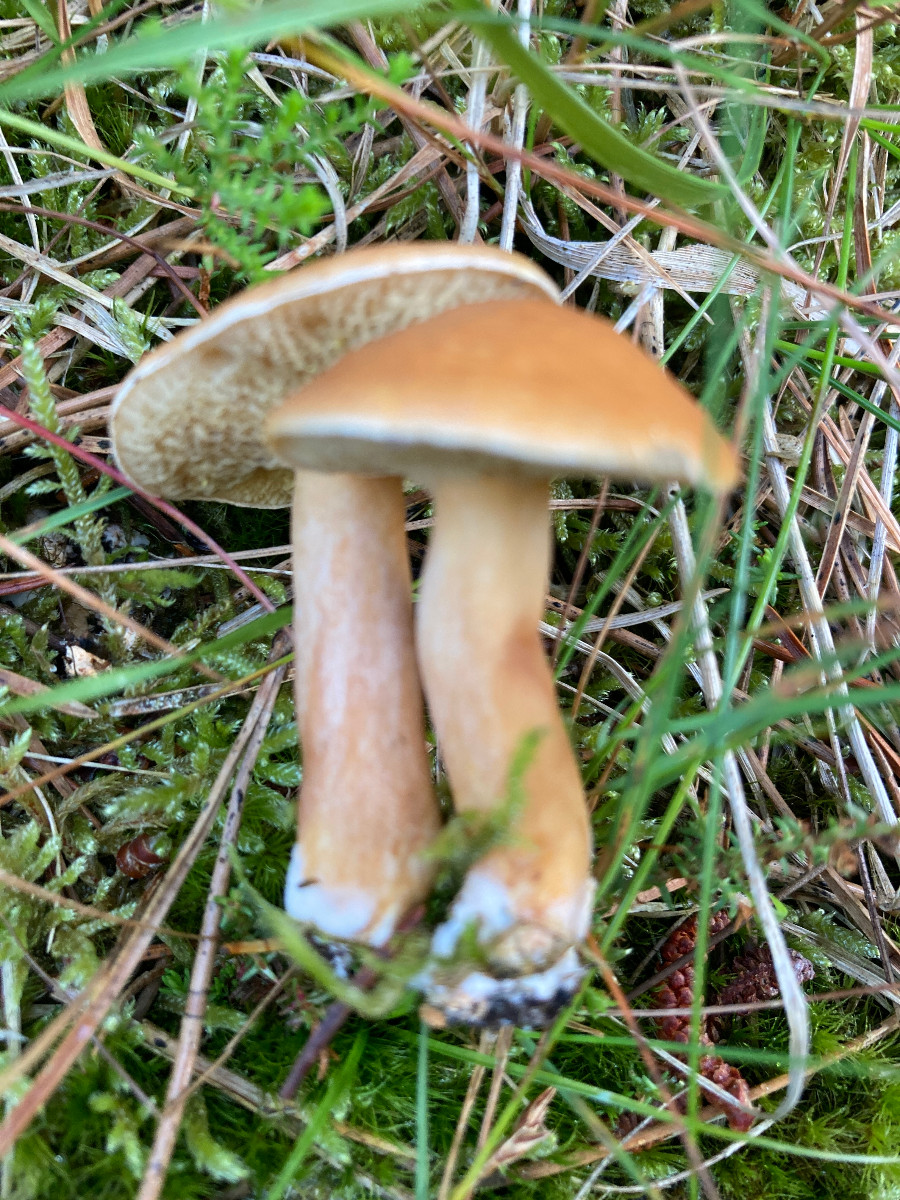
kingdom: Fungi
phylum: Basidiomycota
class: Agaricomycetes
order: Boletales
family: Suillaceae
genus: Suillus
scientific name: Suillus bovinus
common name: grovporet slimrørhat
